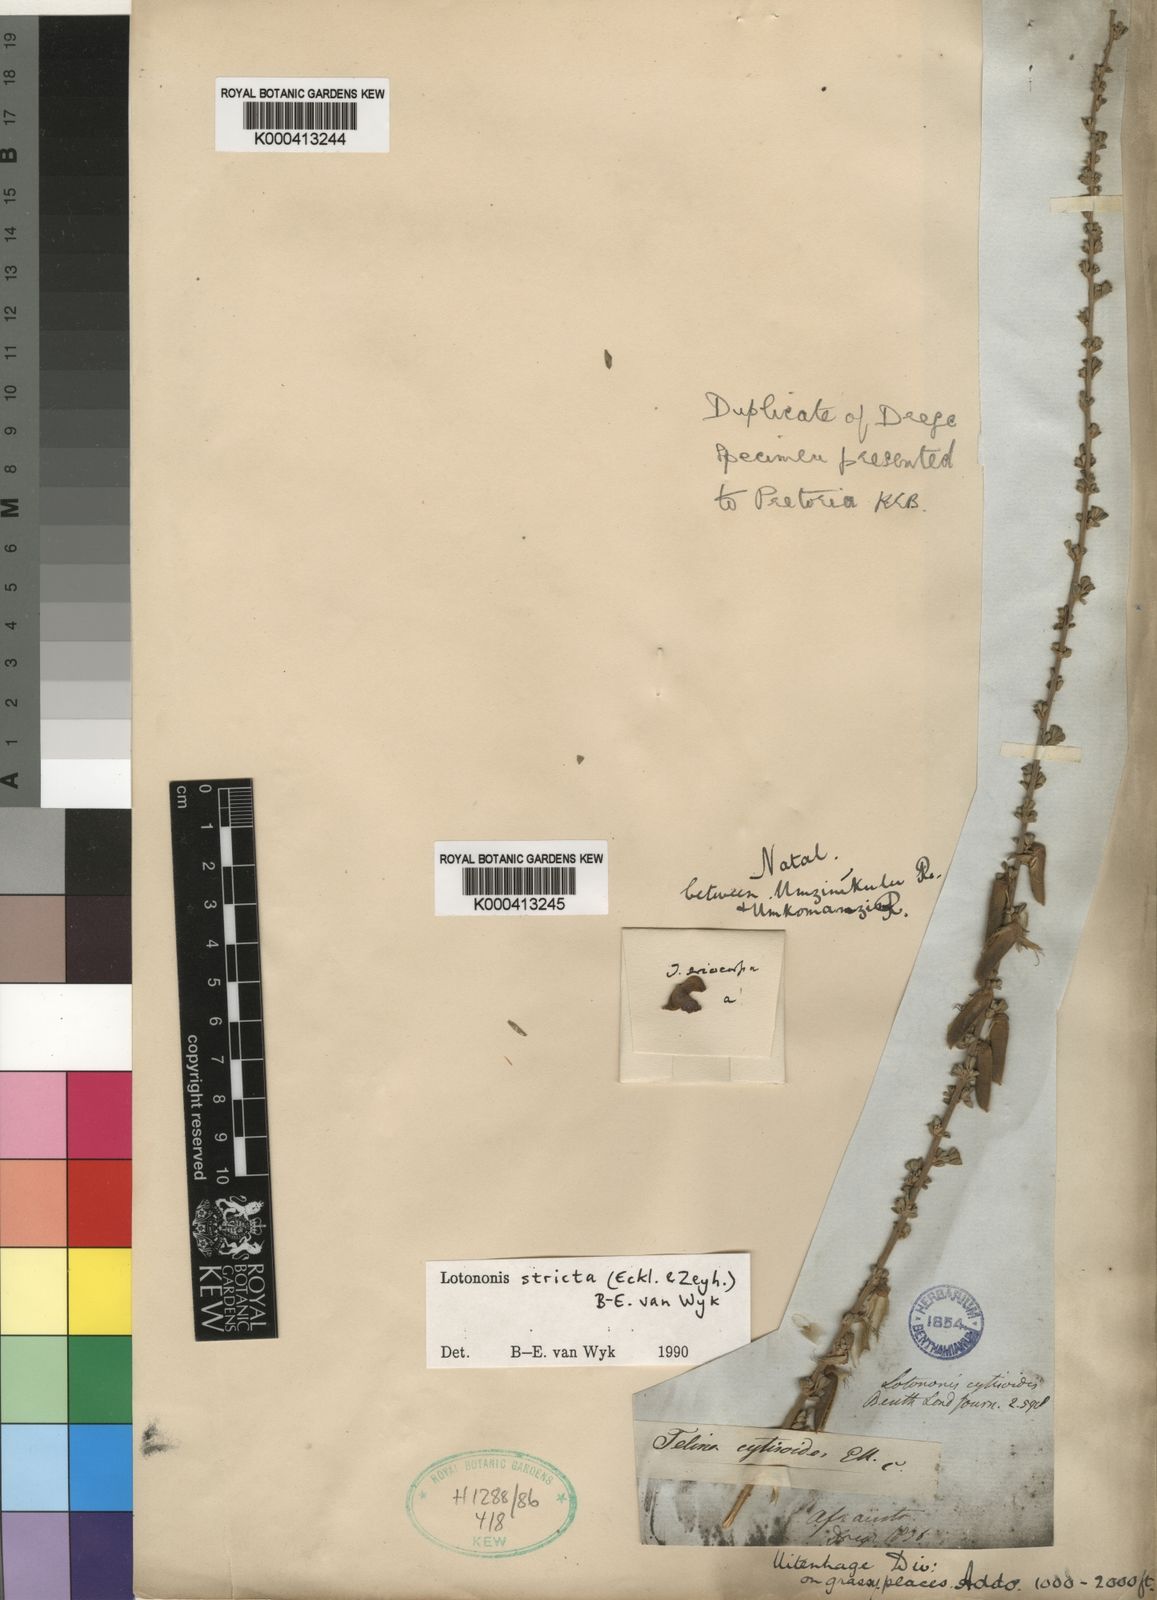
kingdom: Plantae
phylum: Tracheophyta
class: Magnoliopsida
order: Fabales
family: Fabaceae
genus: Lotononis
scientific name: Lotononis stricta
